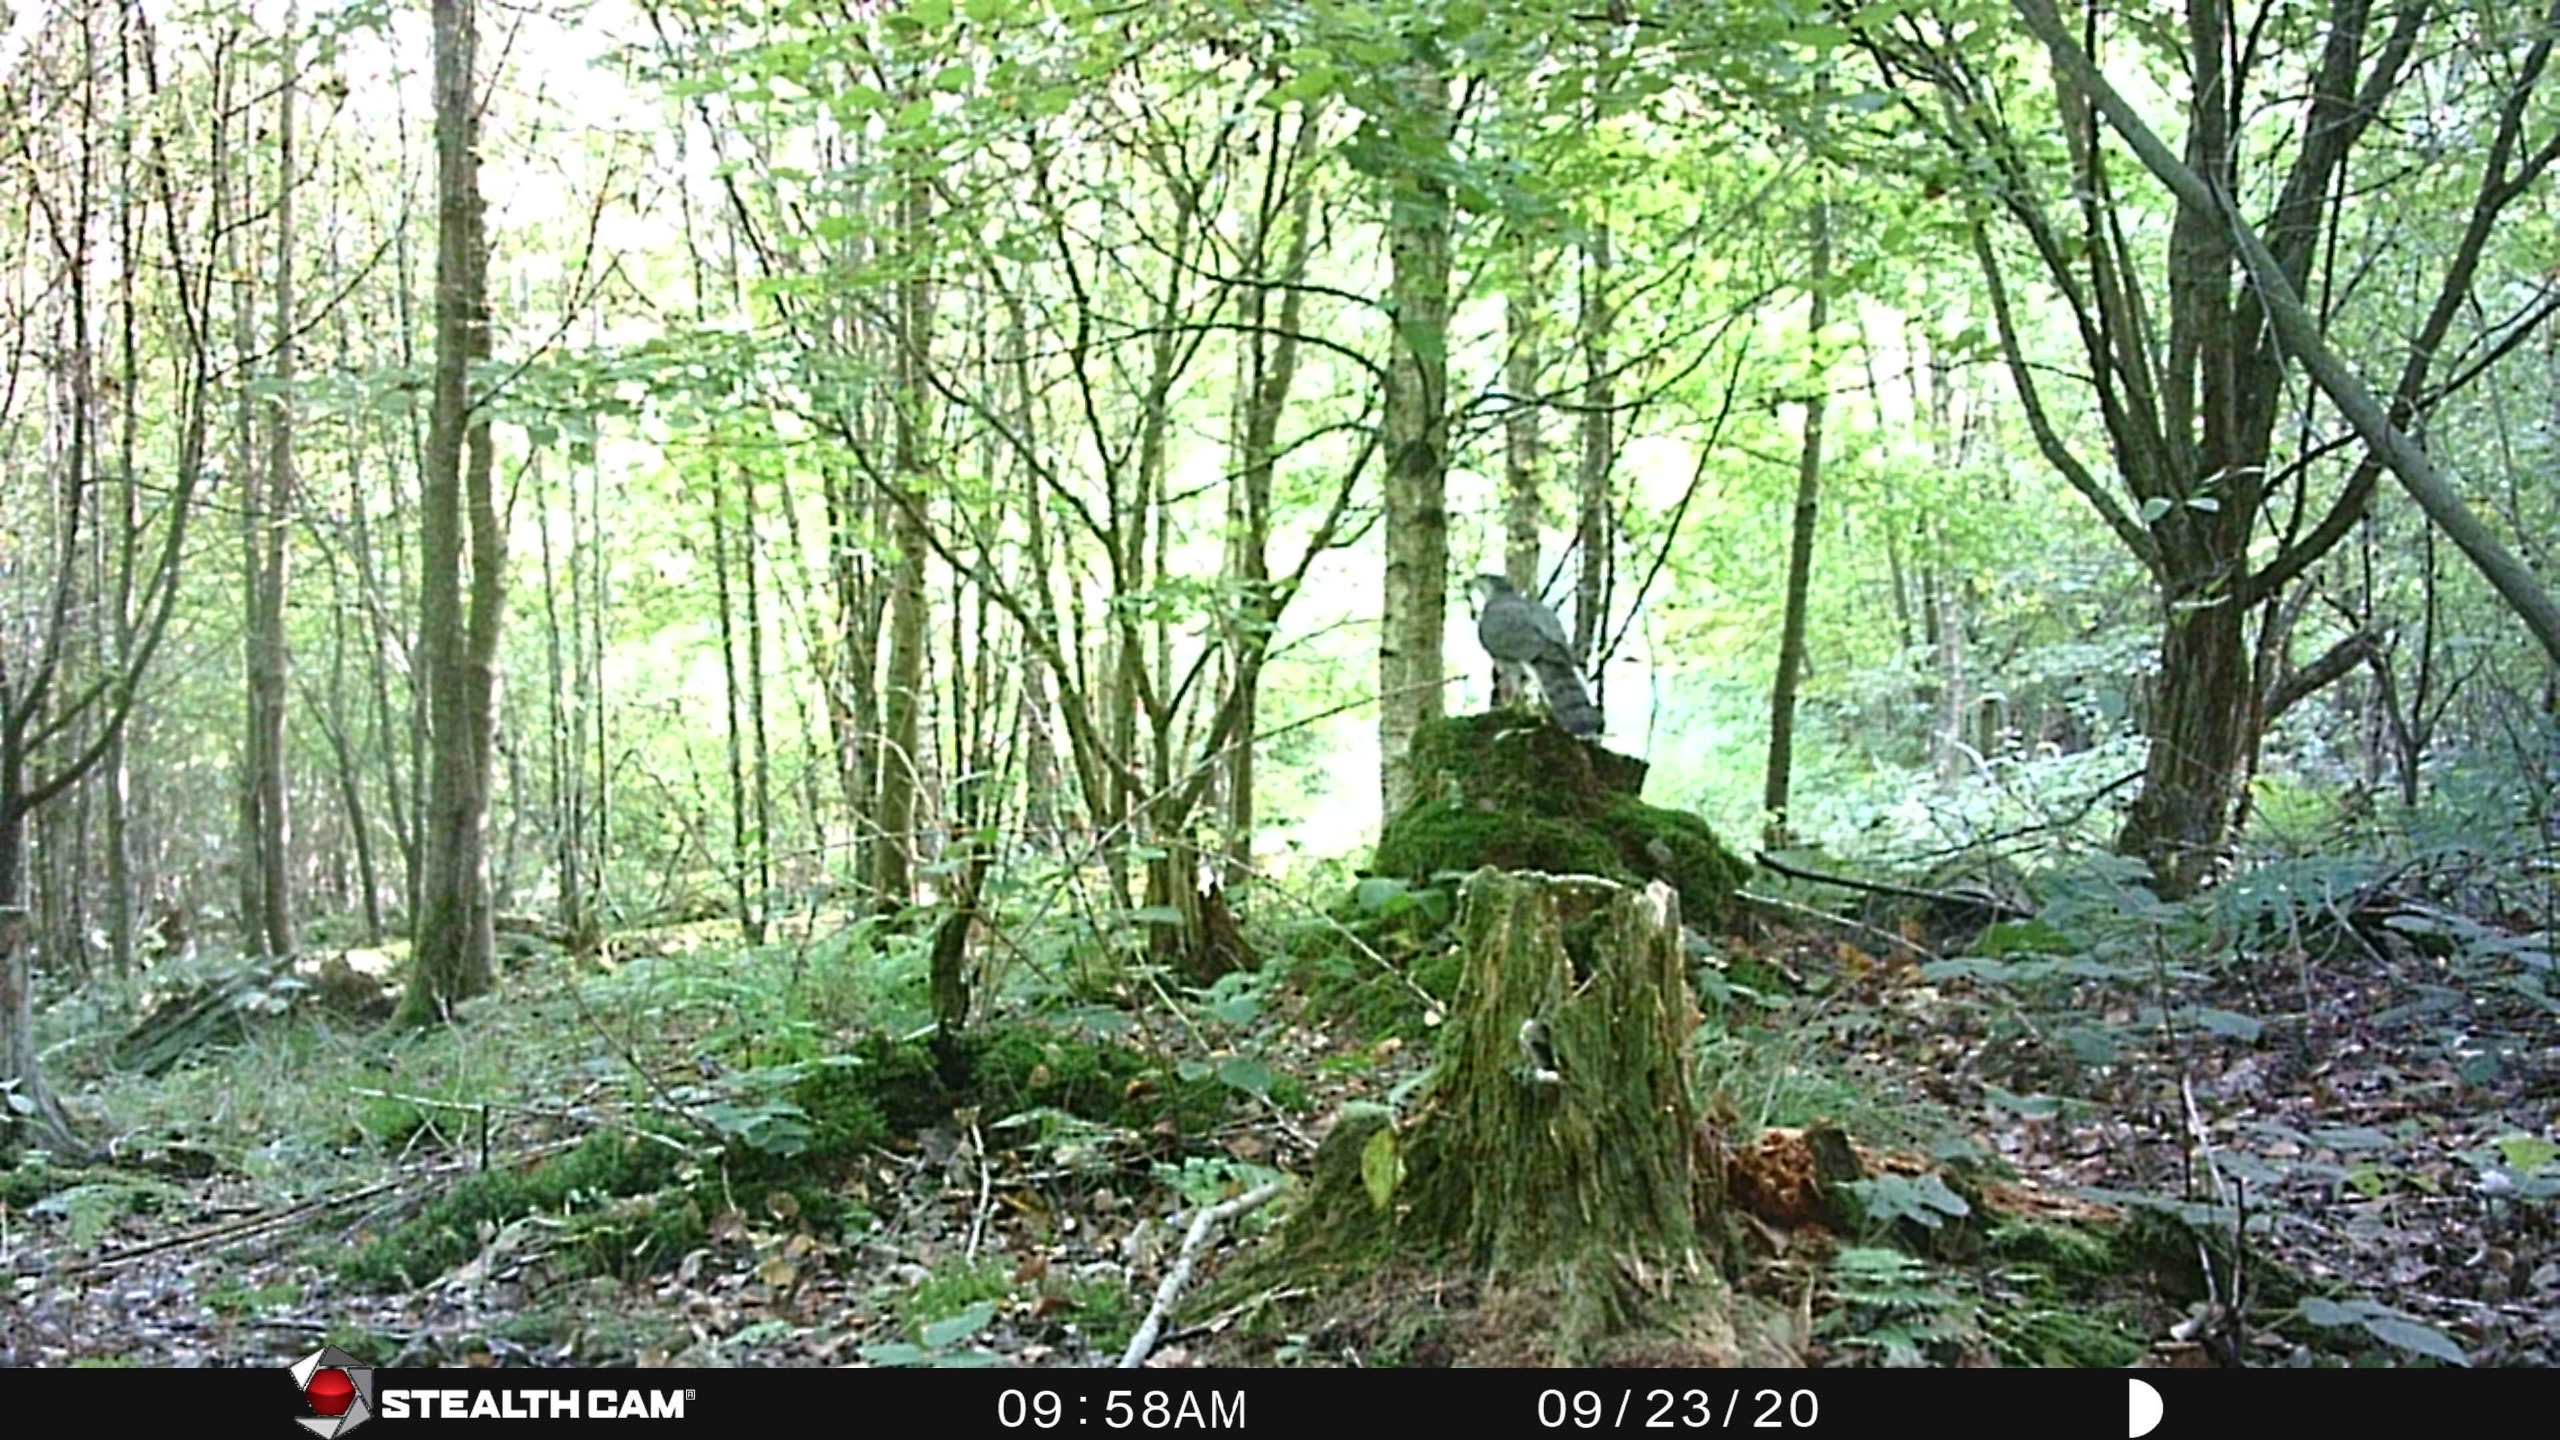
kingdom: Animalia
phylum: Chordata
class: Aves
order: Accipitriformes
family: Accipitridae
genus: Accipiter
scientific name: Accipiter gentilis
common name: Duehøg
